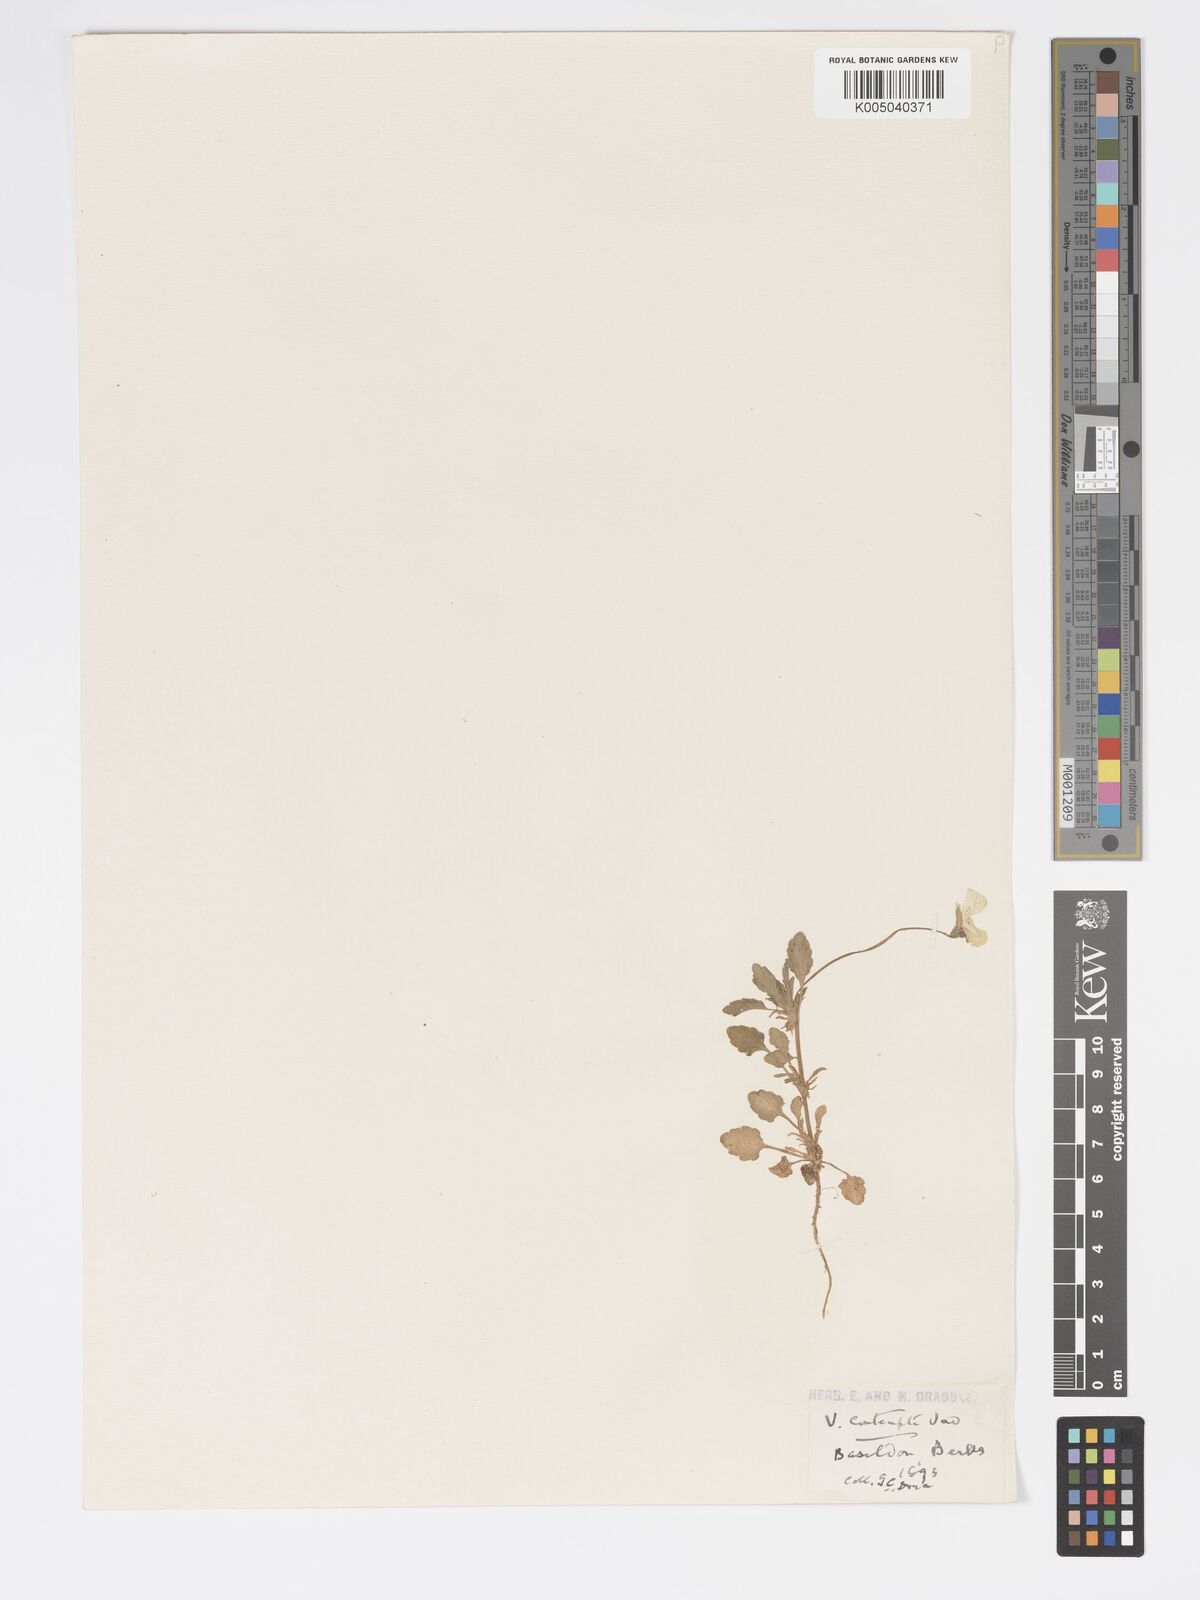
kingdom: Plantae
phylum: Tracheophyta
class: Magnoliopsida
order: Malpighiales
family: Violaceae
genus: Viola
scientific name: Viola arvensis
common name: Field pansy
